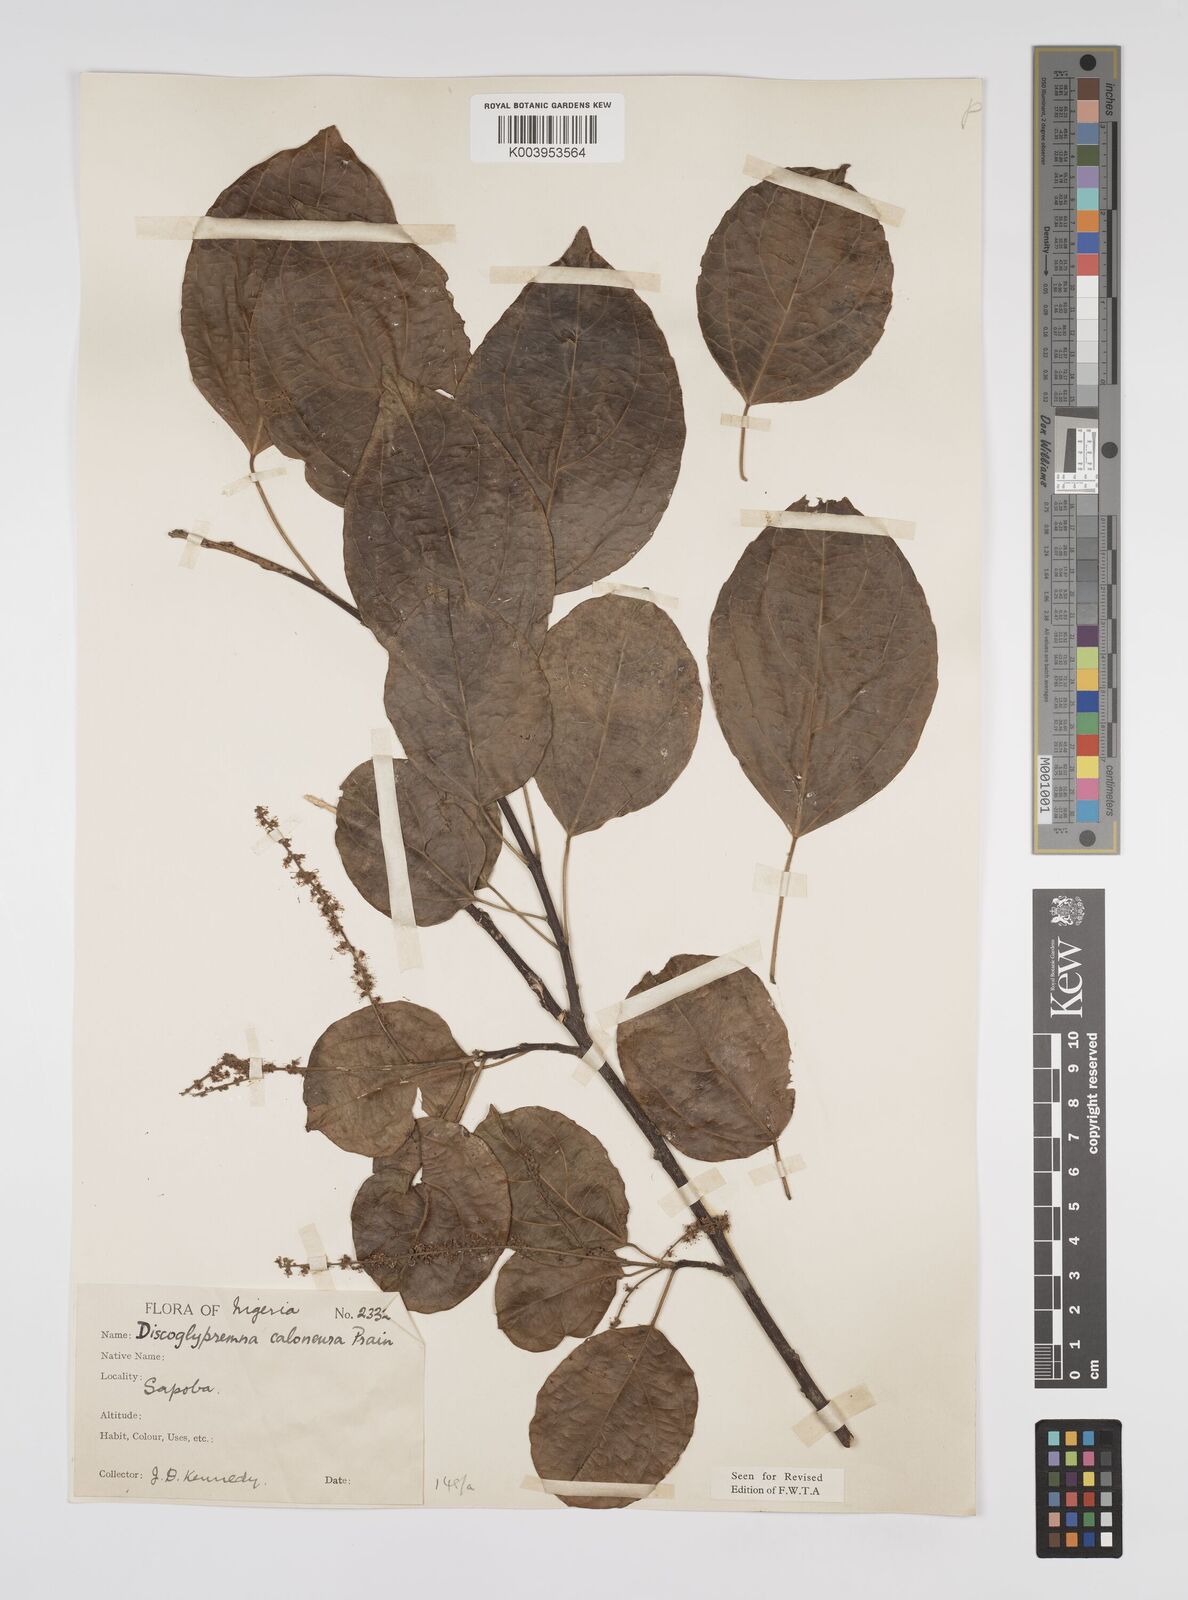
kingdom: Plantae
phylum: Tracheophyta
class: Magnoliopsida
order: Malpighiales
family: Euphorbiaceae
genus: Discoglypremna
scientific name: Discoglypremna caloneura
